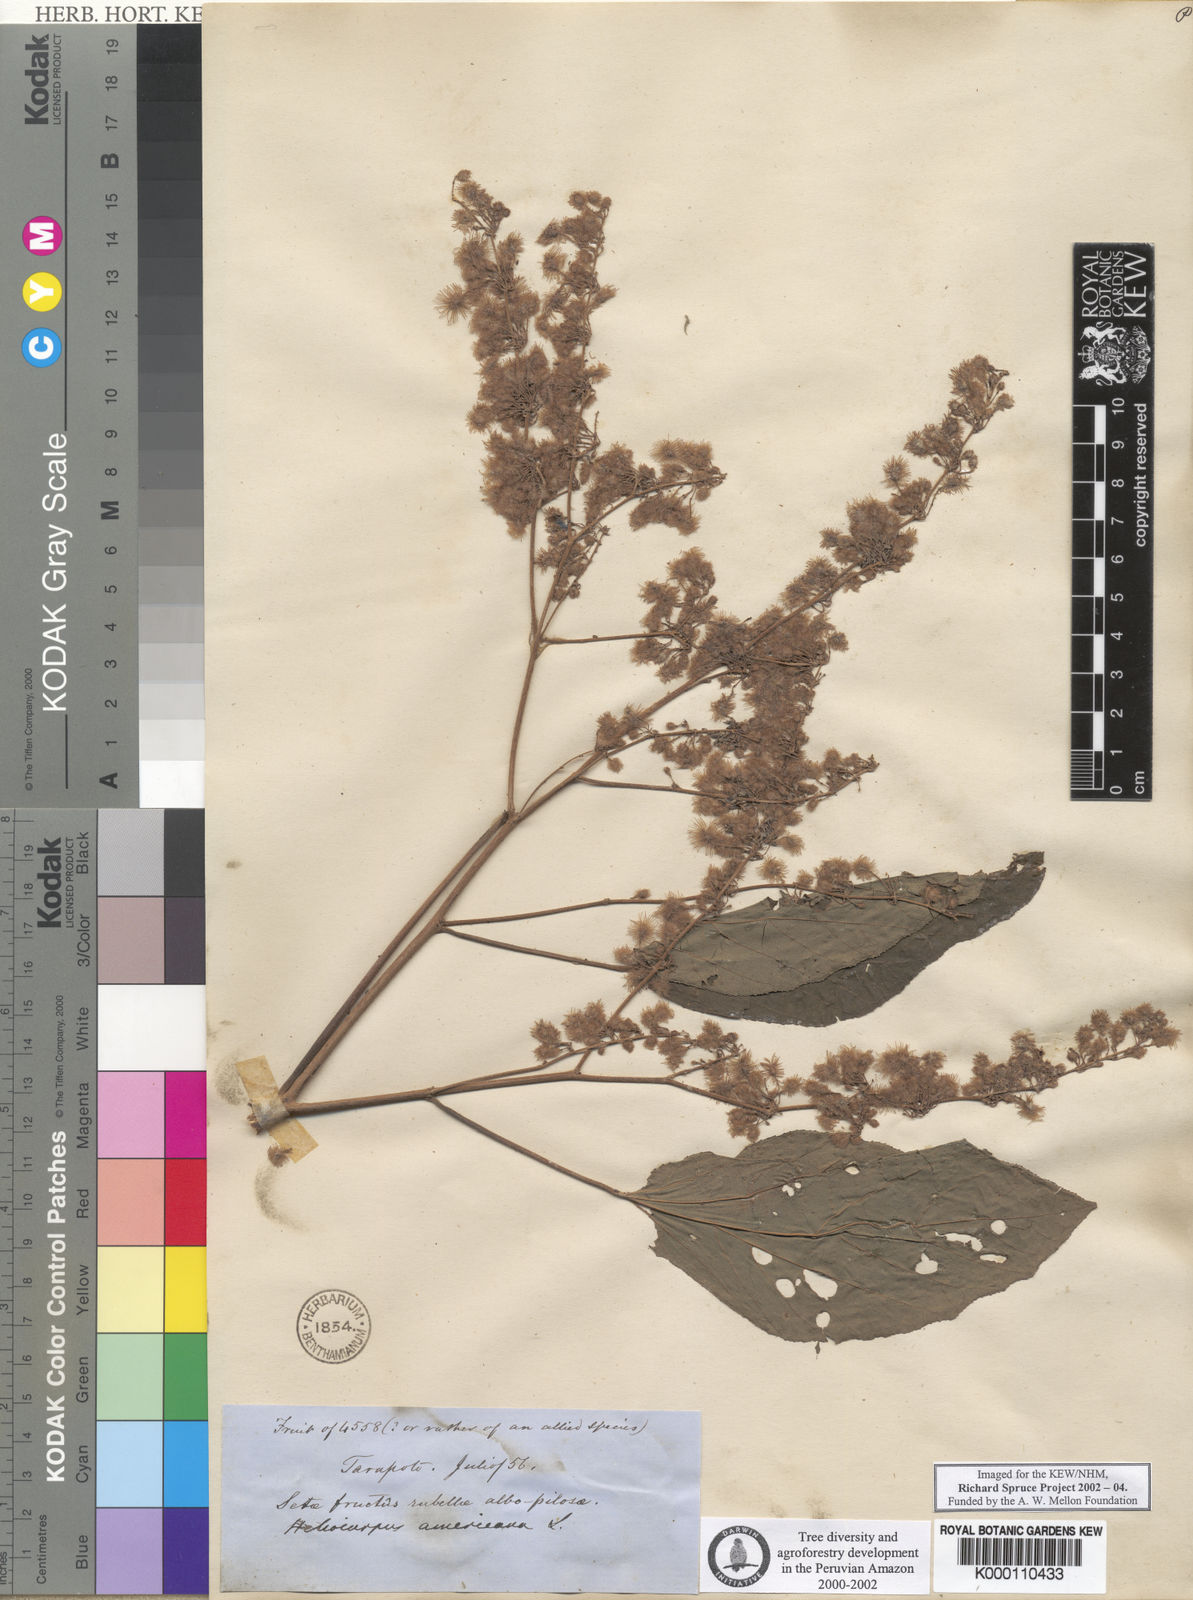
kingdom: Plantae
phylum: Tracheophyta
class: Magnoliopsida
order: Malvales
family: Malvaceae
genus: Heliocarpus
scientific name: Heliocarpus americanus
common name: White moho
